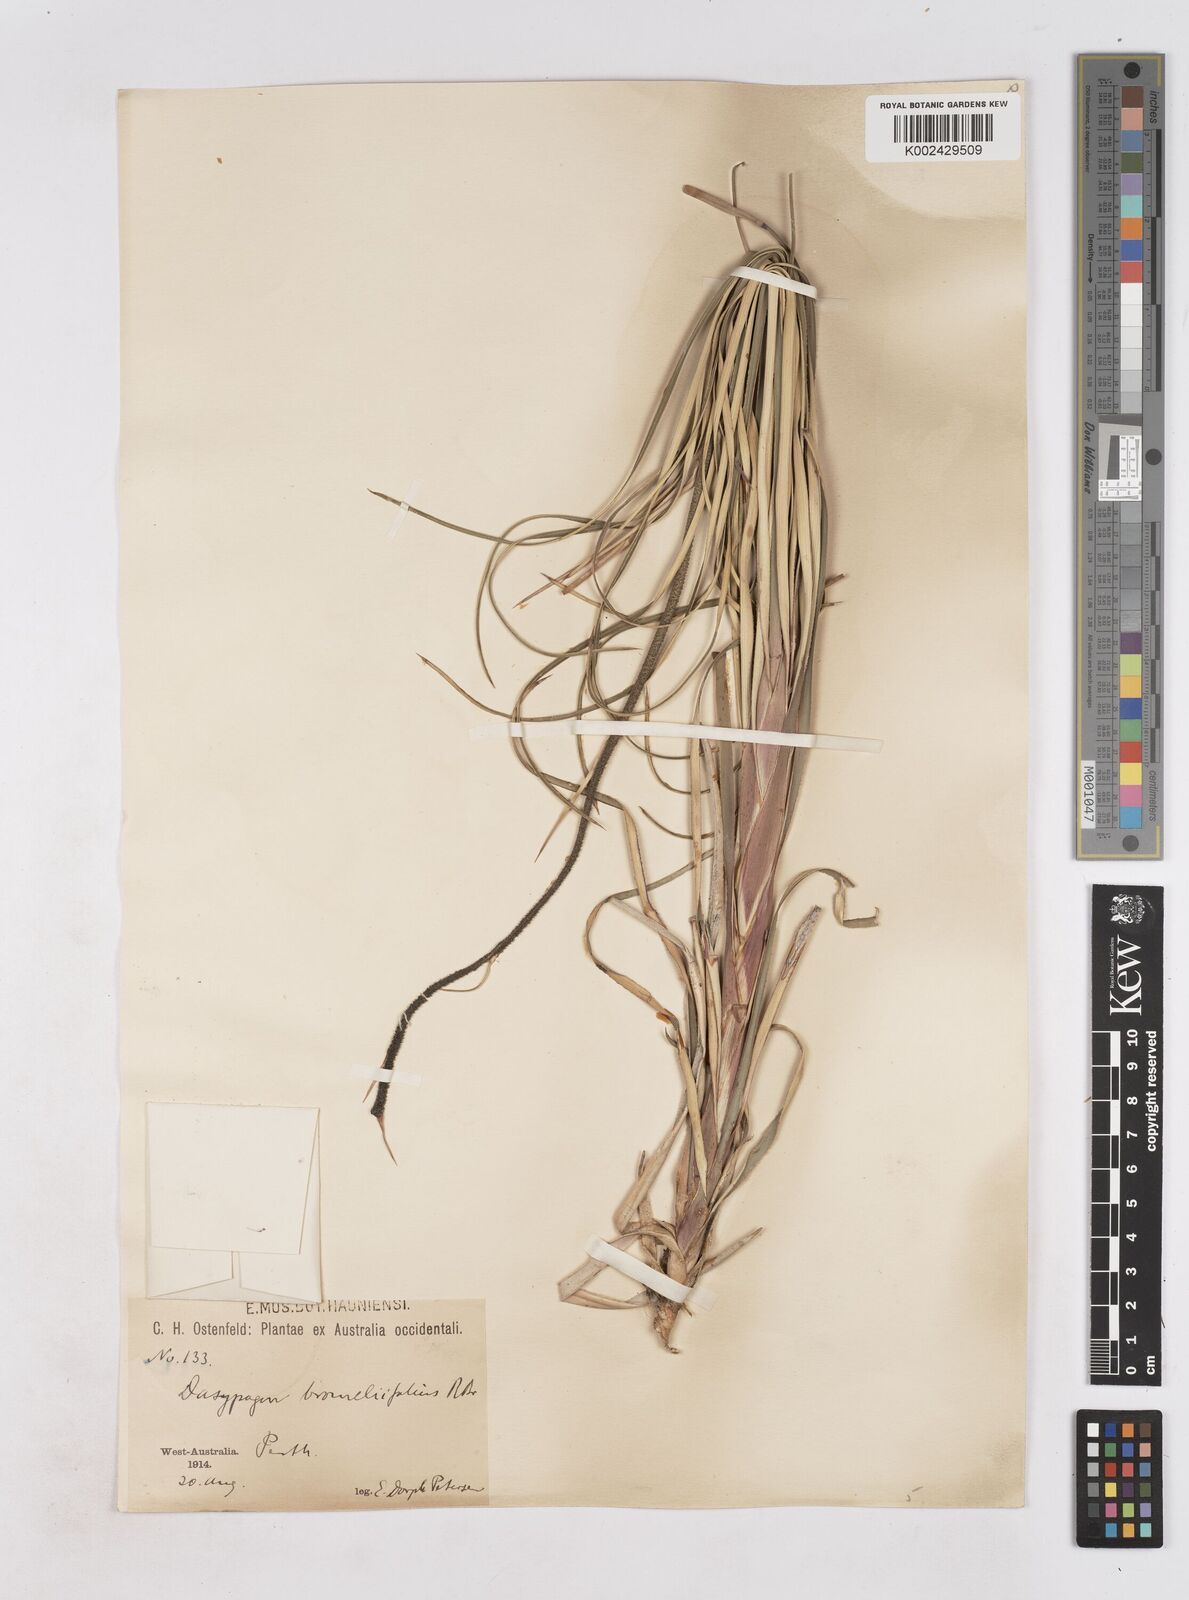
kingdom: Plantae
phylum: Tracheophyta
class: Liliopsida
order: Arecales
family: Dasypogonaceae
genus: Dasypogon
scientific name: Dasypogon bromeliifolius
